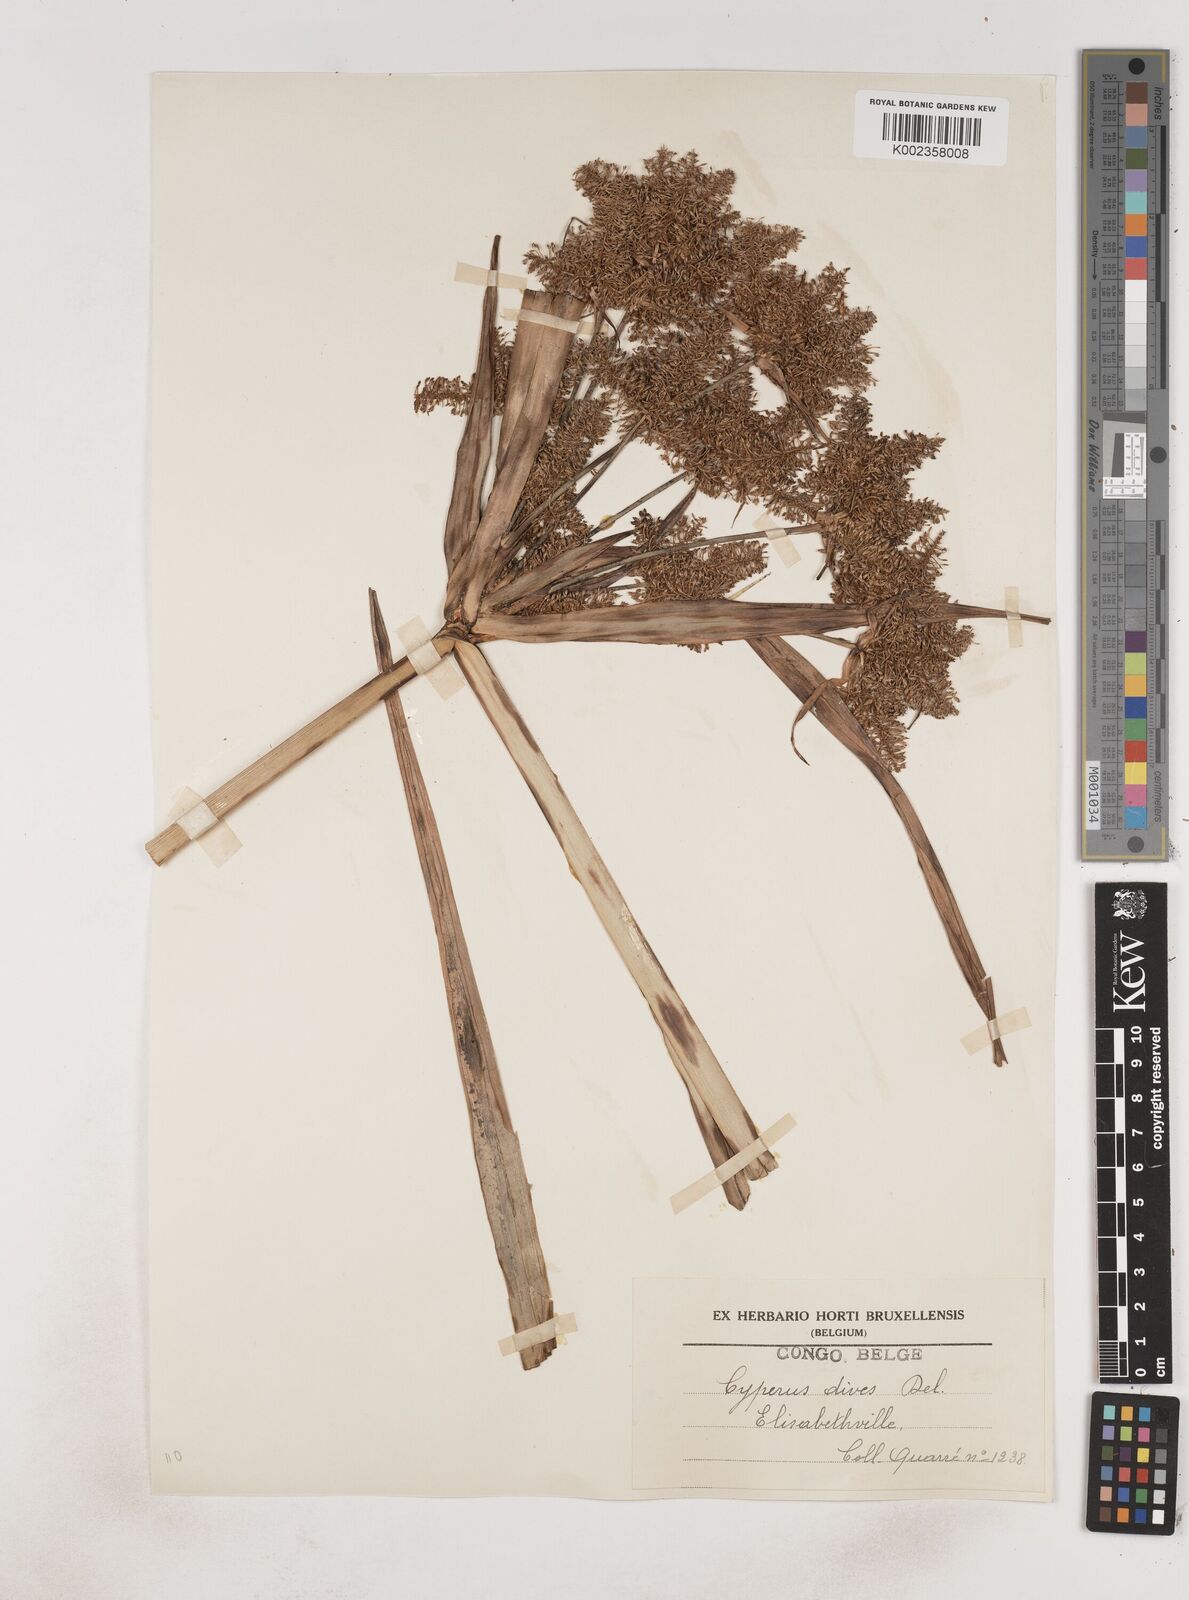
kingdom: Plantae
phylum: Tracheophyta
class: Liliopsida
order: Poales
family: Cyperaceae
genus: Cyperus
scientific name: Cyperus dives
